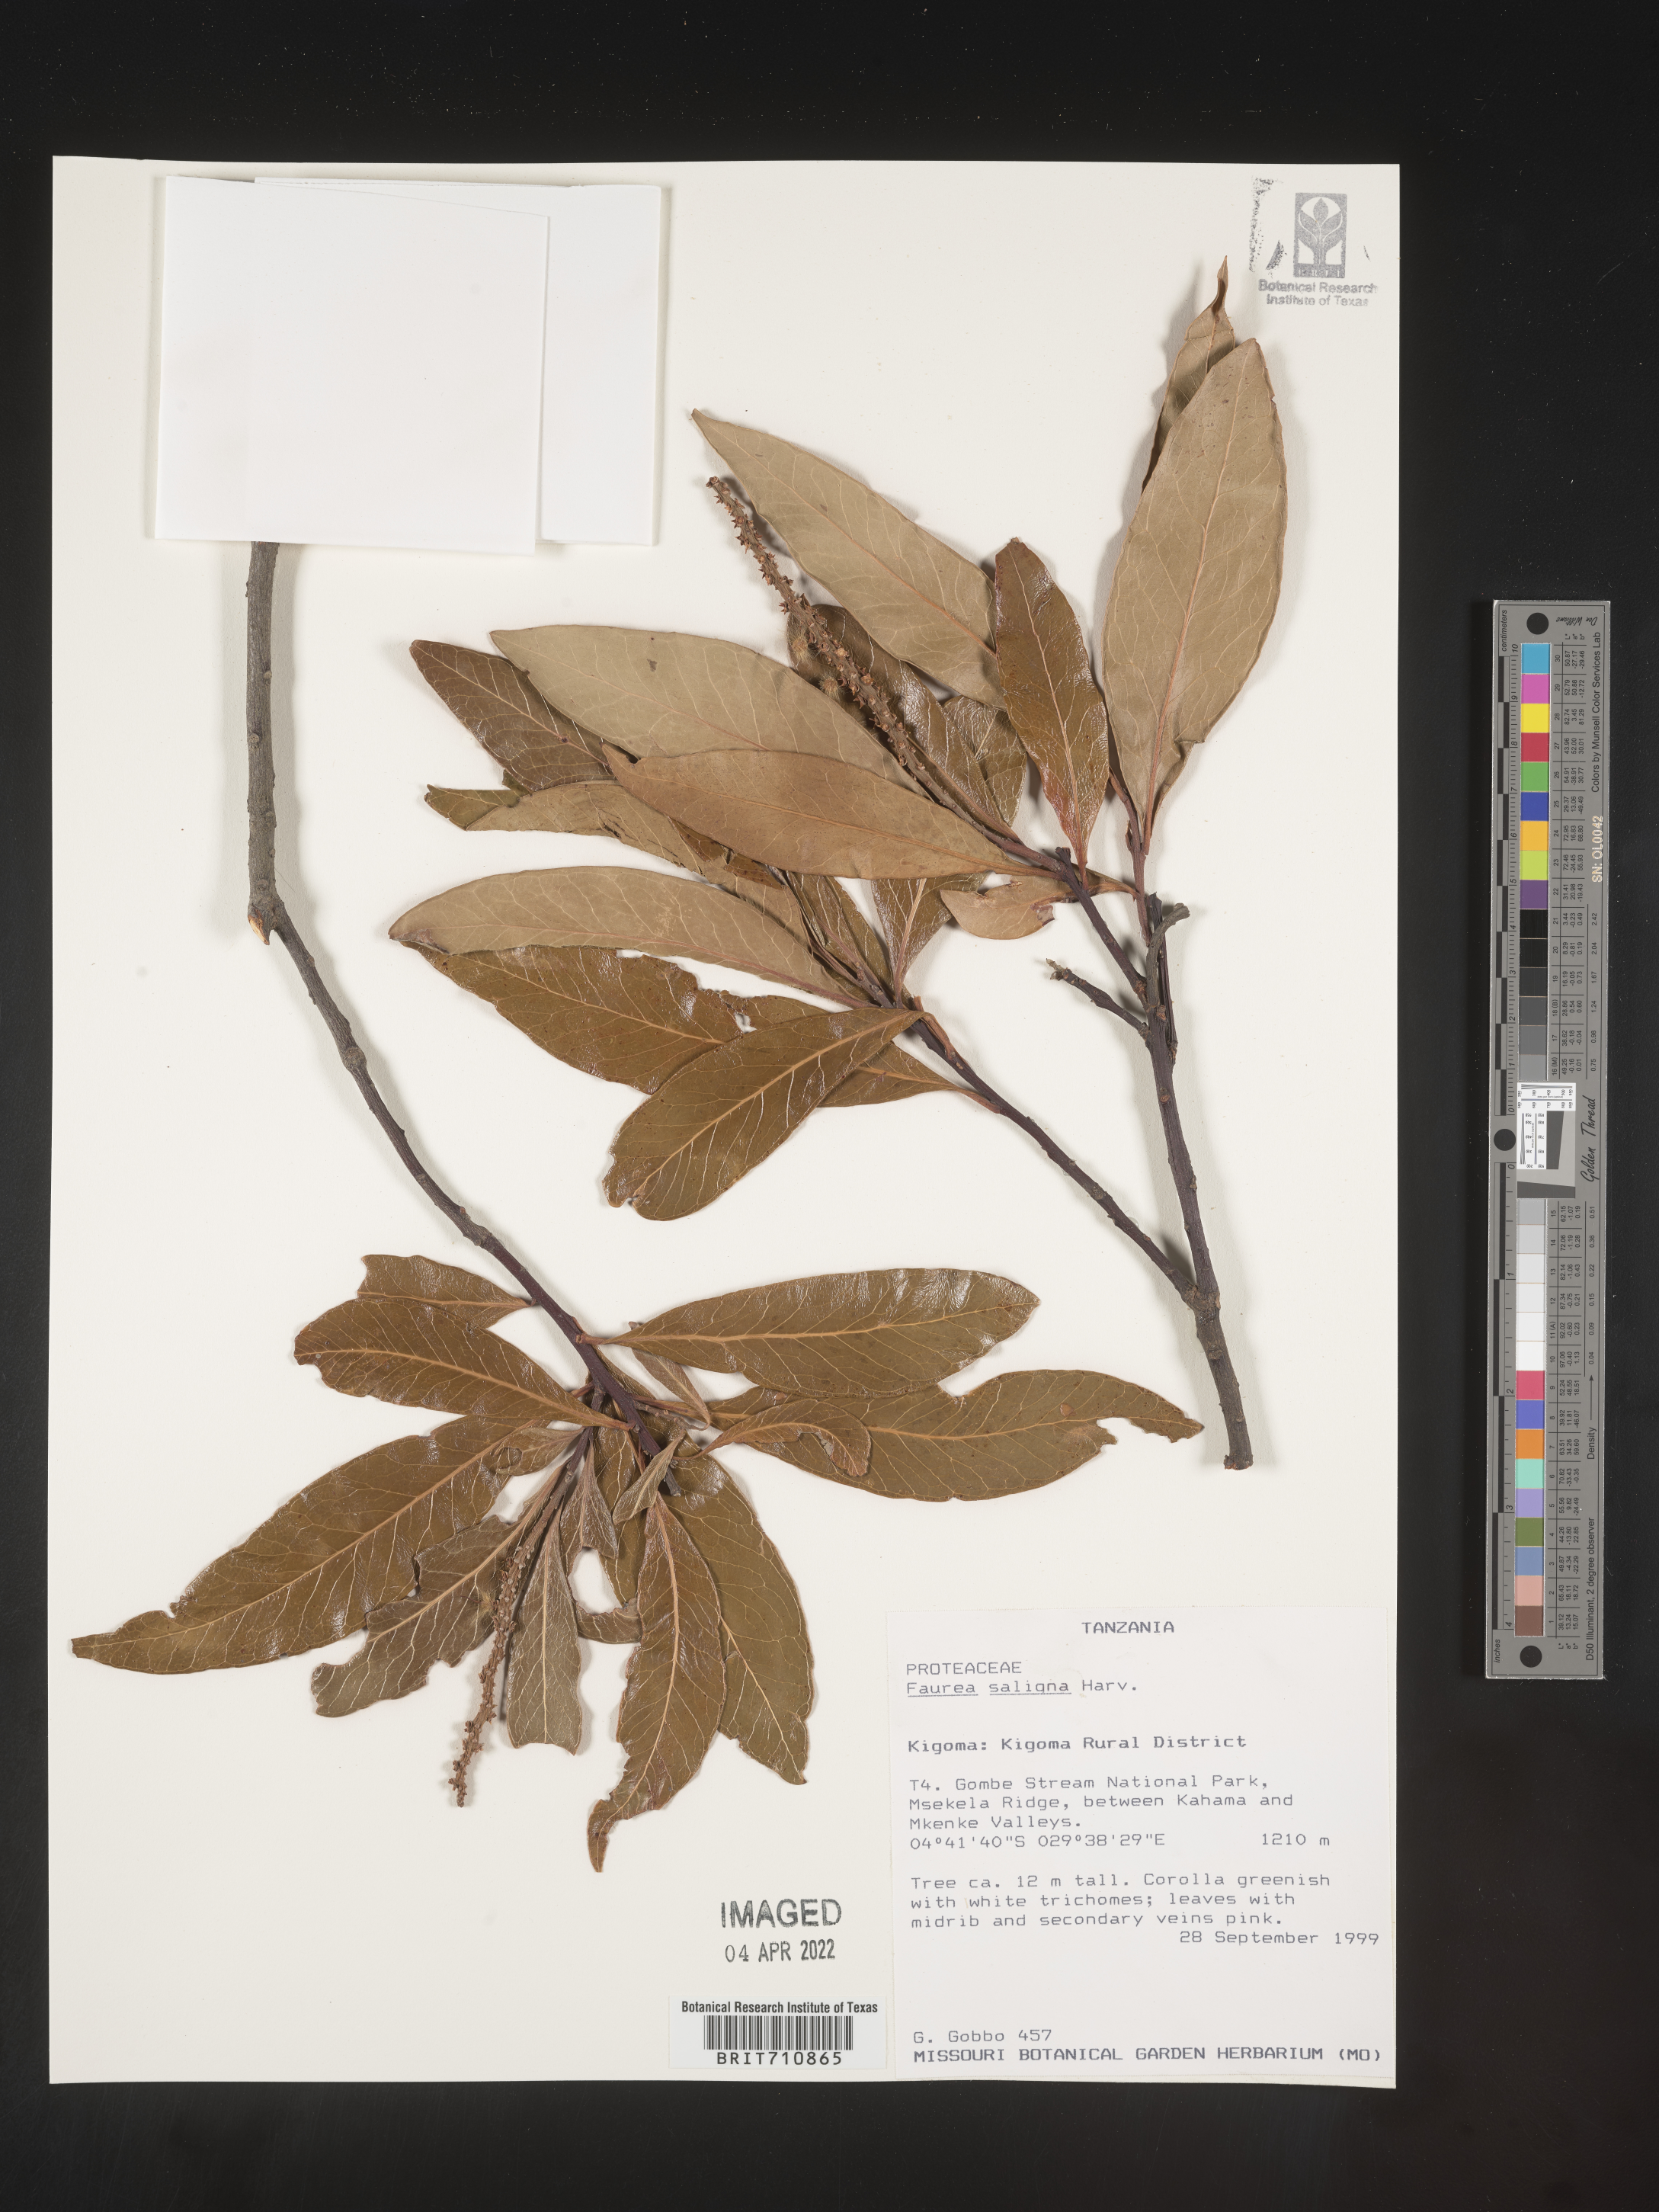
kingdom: Plantae
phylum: Tracheophyta
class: Magnoliopsida
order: Proteales
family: Proteaceae
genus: Faurea
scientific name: Faurea
